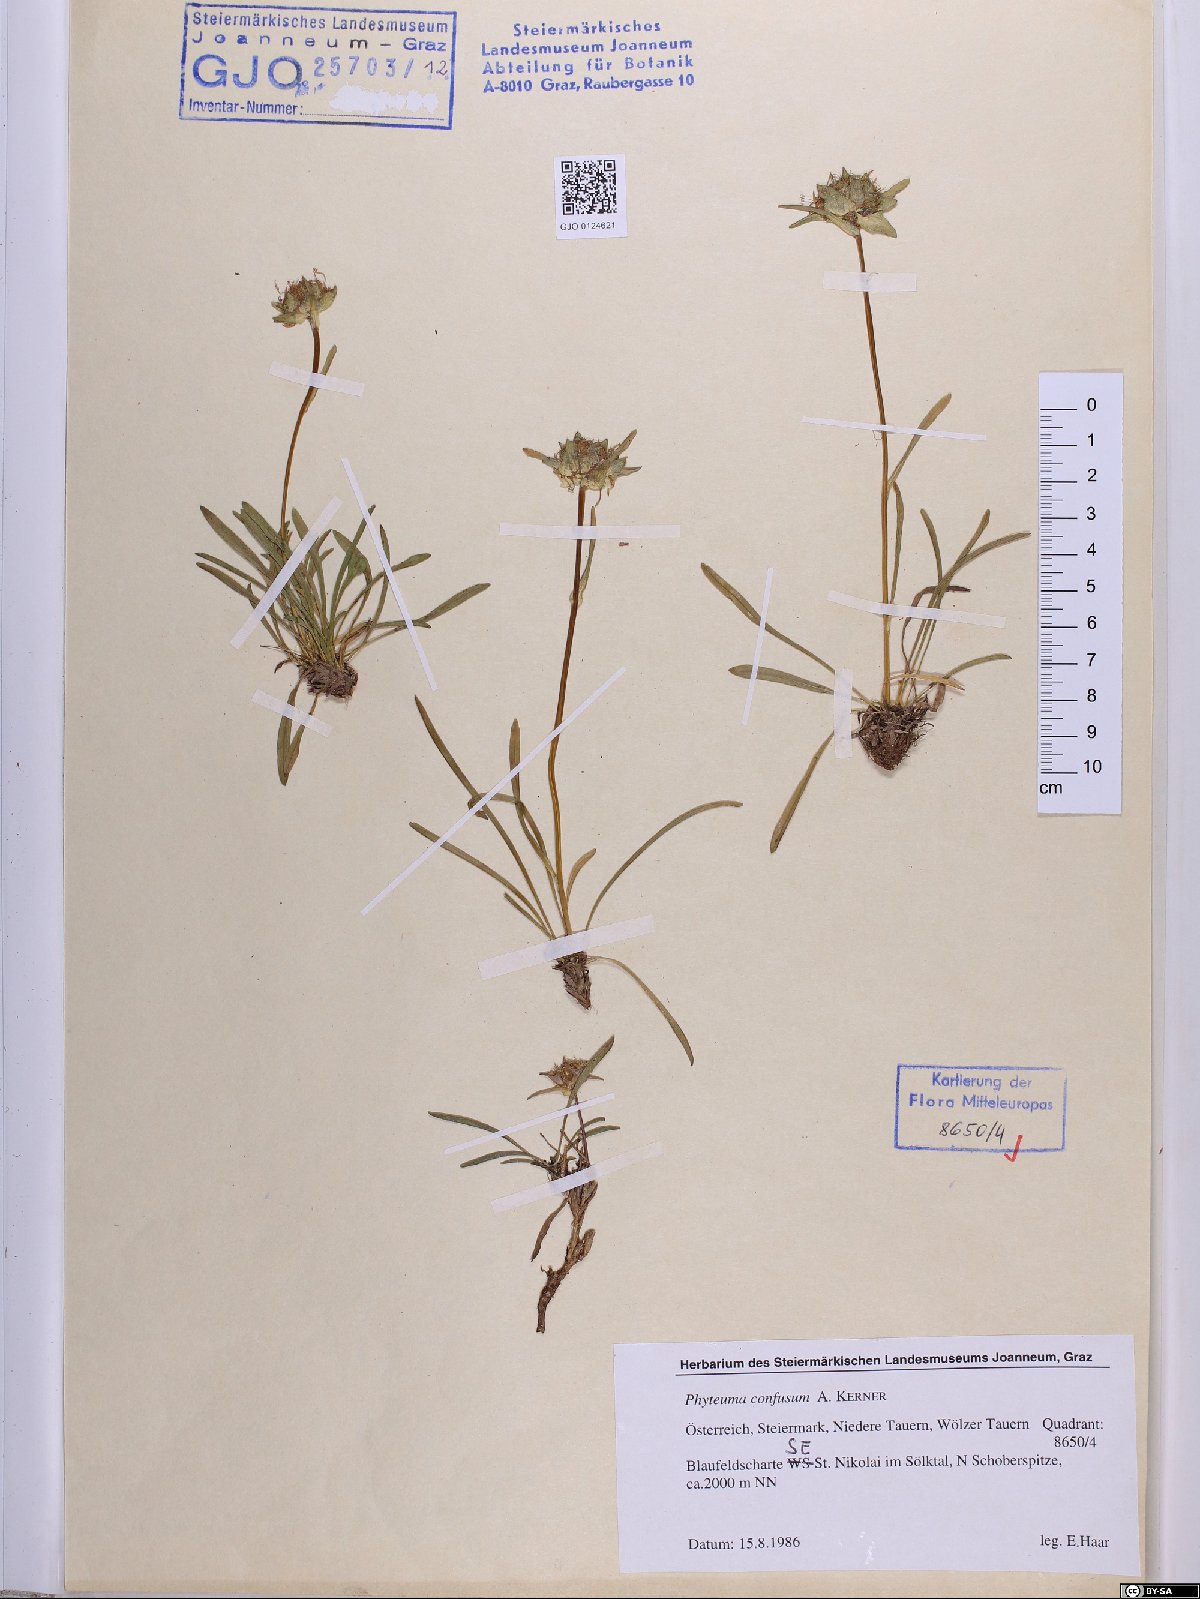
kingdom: Plantae
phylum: Tracheophyta
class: Magnoliopsida
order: Asterales
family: Campanulaceae
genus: Phyteuma
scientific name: Phyteuma confusum
